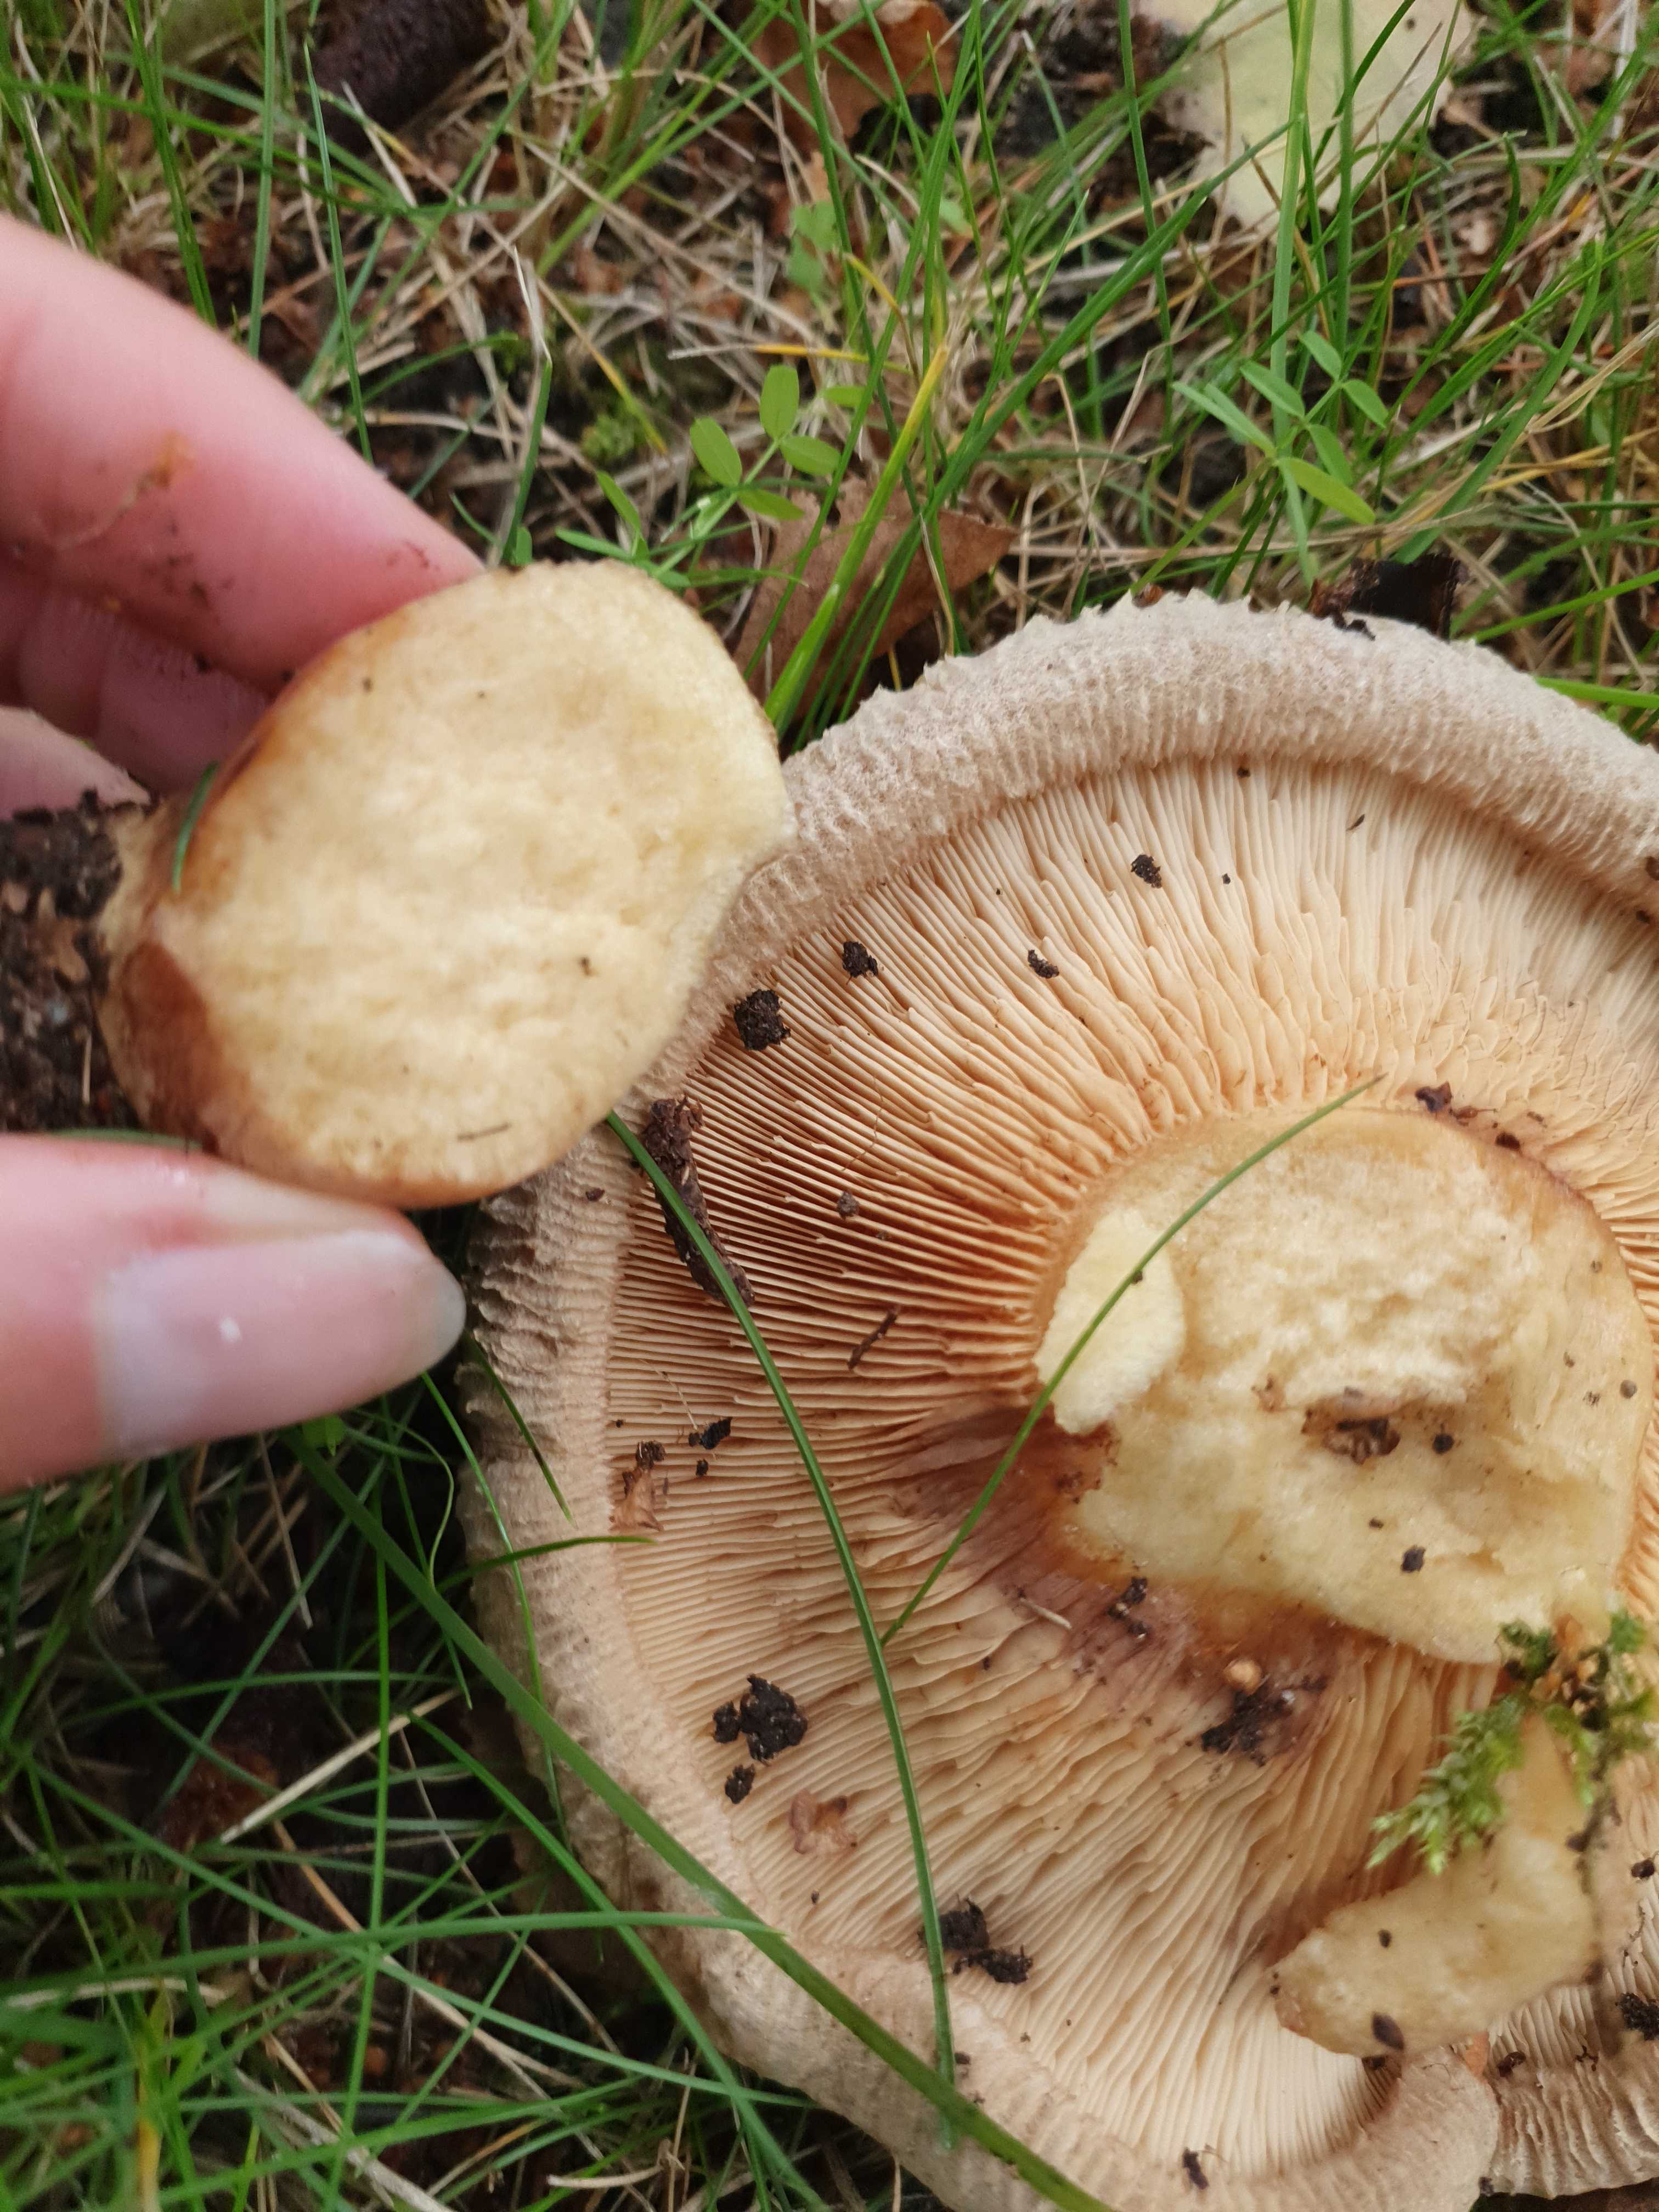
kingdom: Fungi
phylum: Basidiomycota
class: Agaricomycetes
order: Boletales
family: Paxillaceae
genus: Paxillus
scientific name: Paxillus
